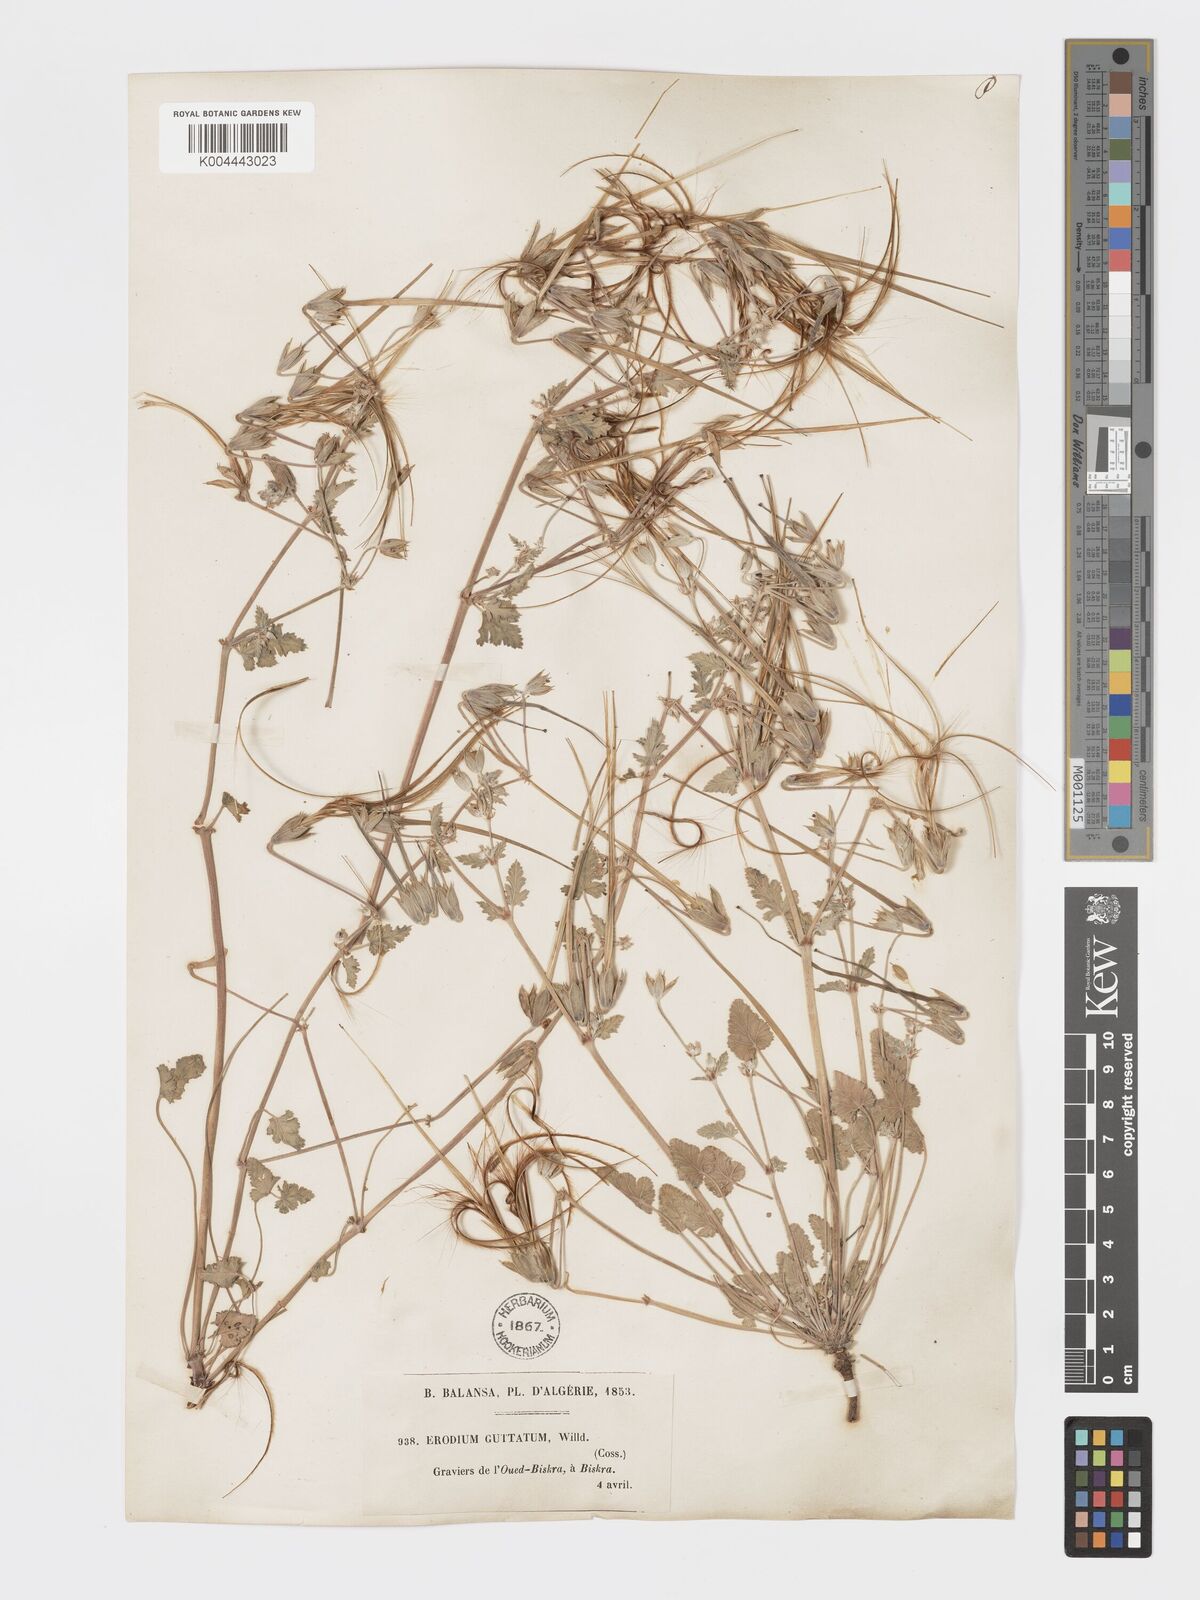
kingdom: Plantae
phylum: Tracheophyta
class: Magnoliopsida
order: Geraniales
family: Geraniaceae
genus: Erodium
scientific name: Erodium guttatum
